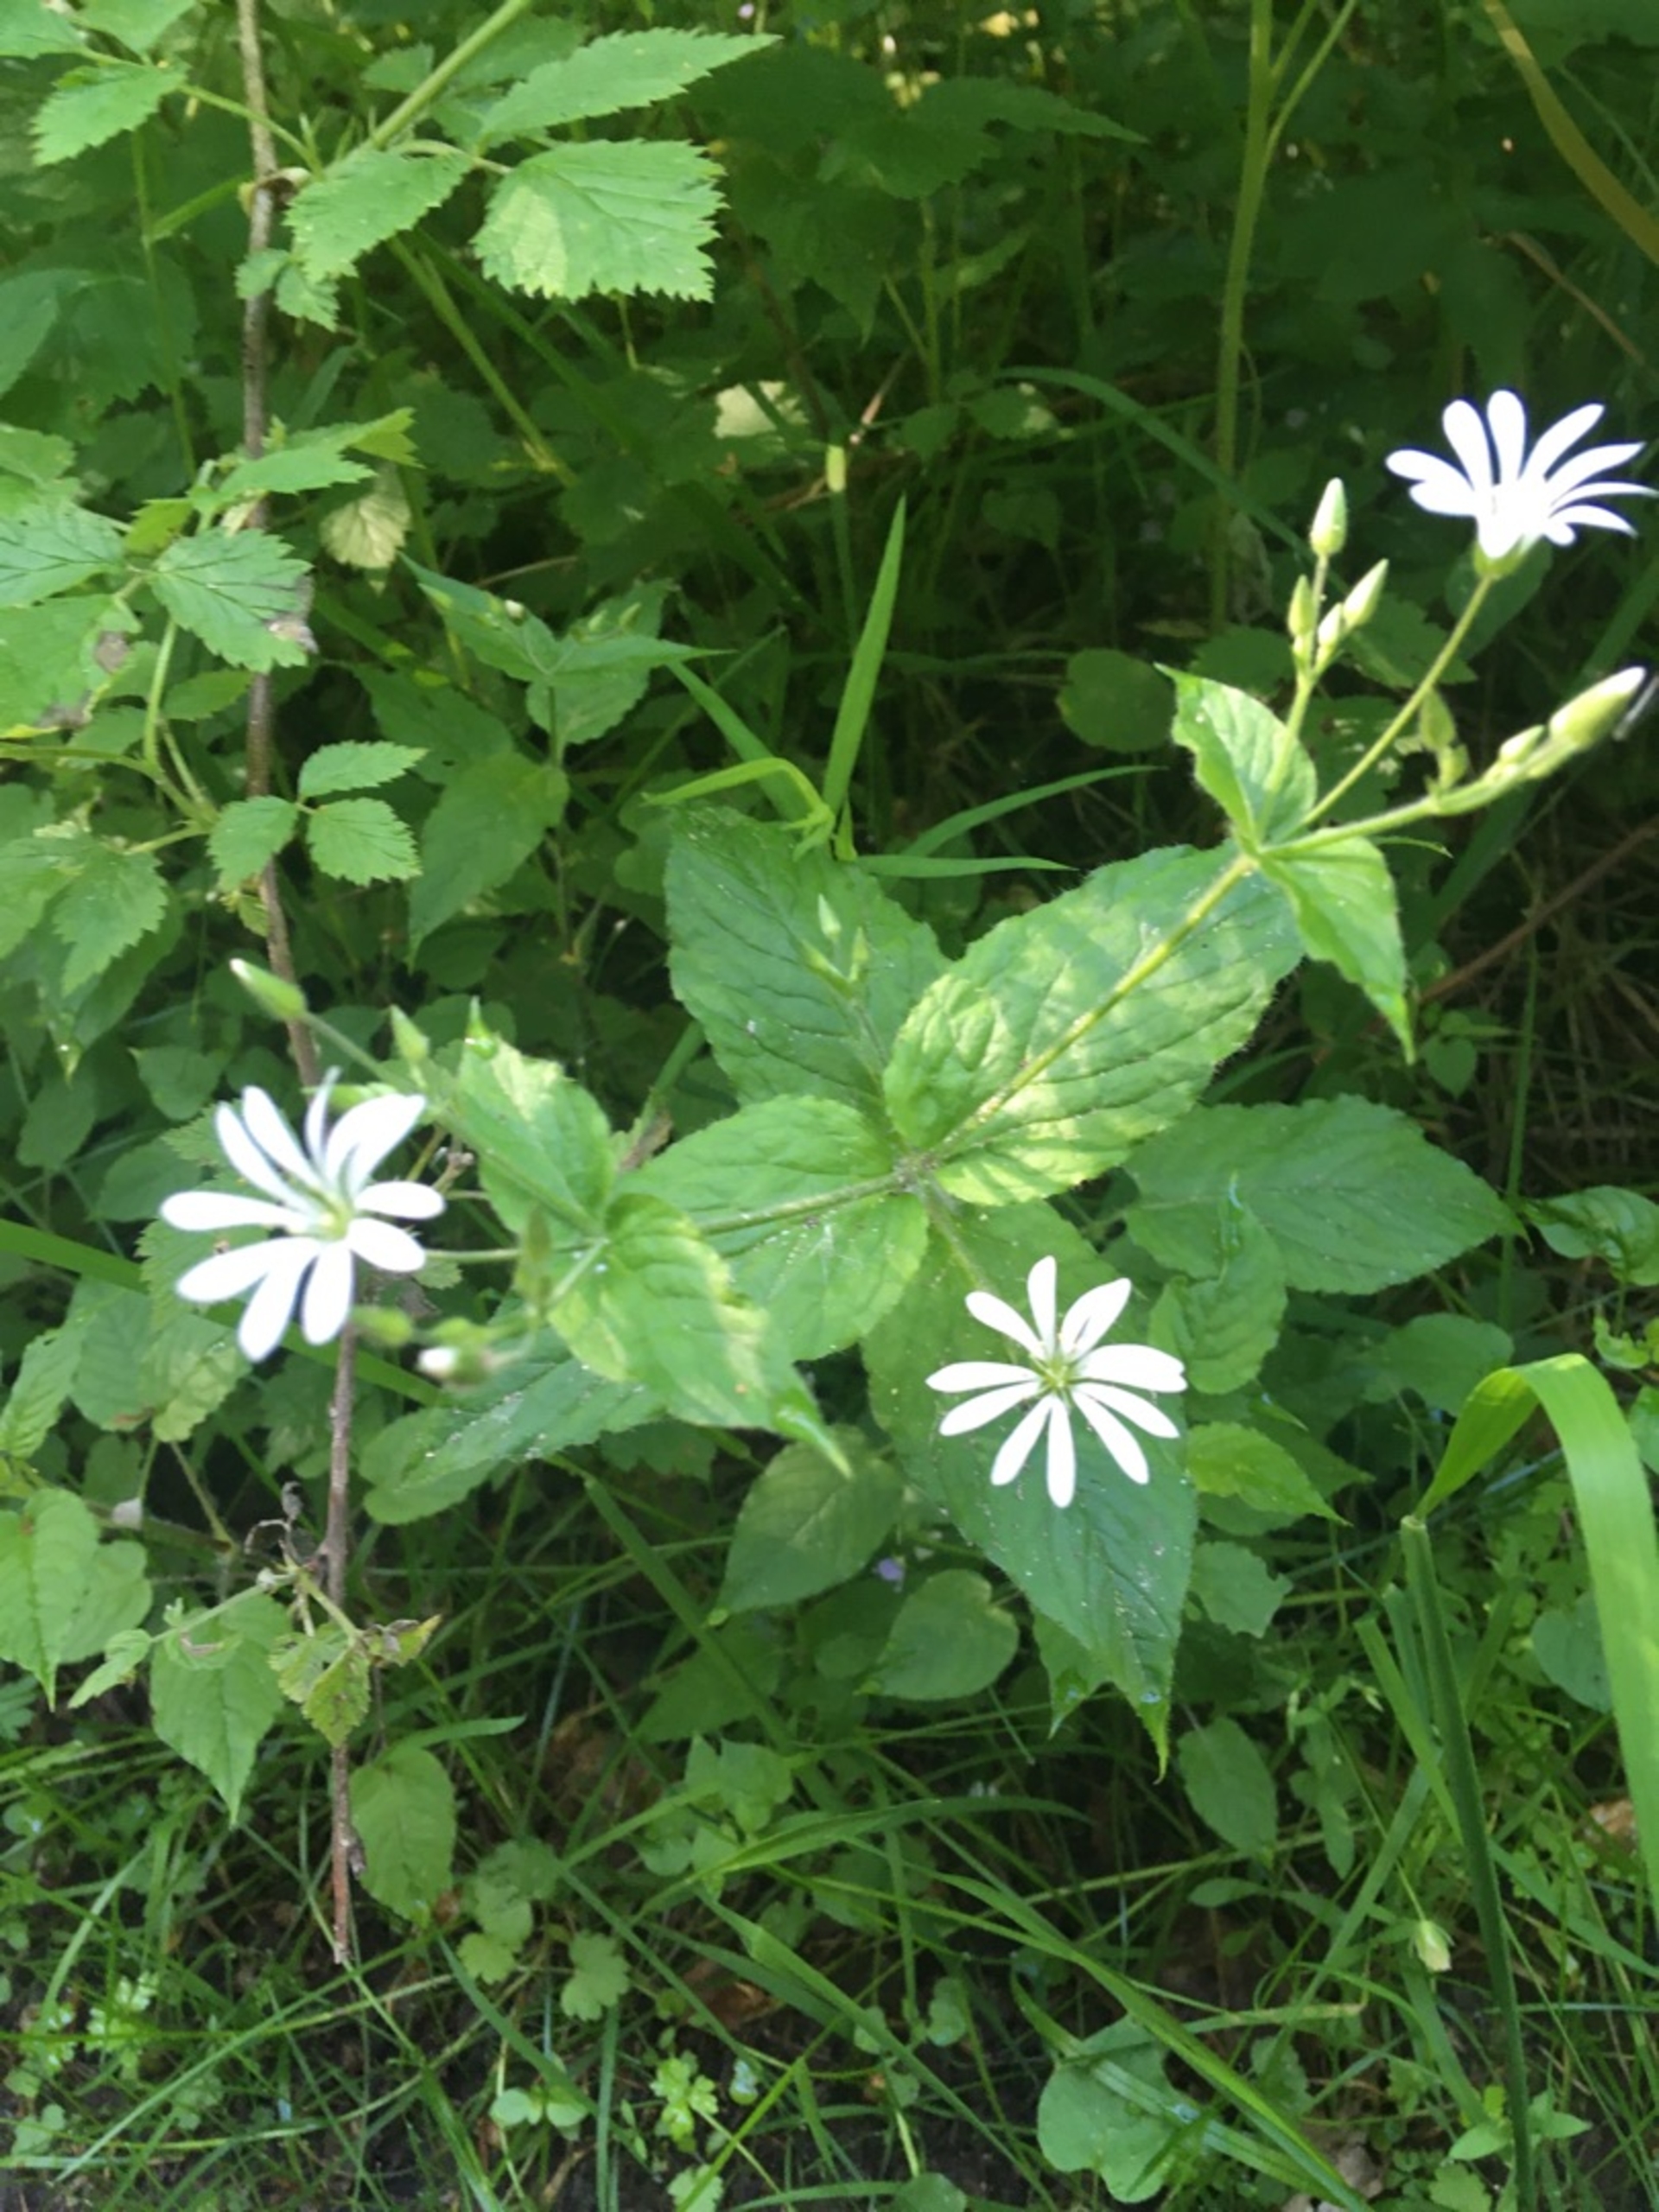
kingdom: Plantae
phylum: Tracheophyta
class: Magnoliopsida
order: Caryophyllales
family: Caryophyllaceae
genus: Stellaria
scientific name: Stellaria nemorum
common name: Lund-fladstjerne
